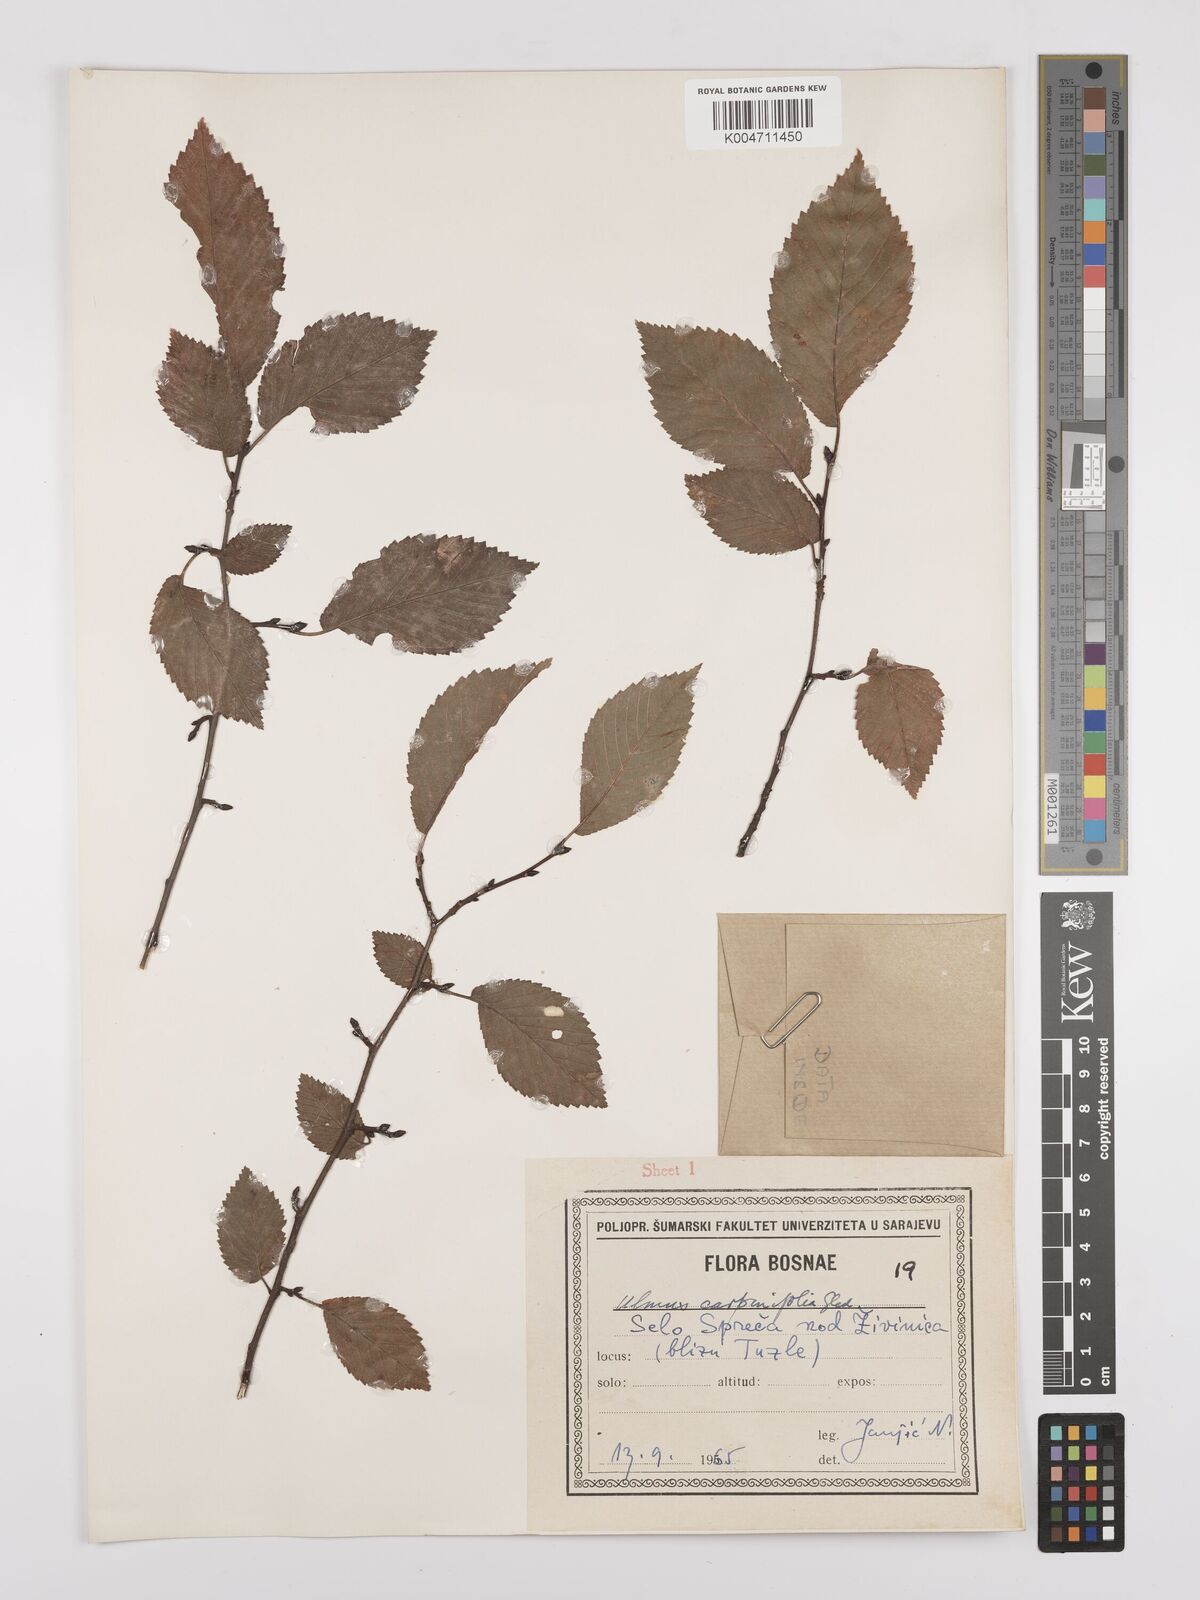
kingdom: Plantae
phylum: Tracheophyta
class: Magnoliopsida
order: Rosales
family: Ulmaceae
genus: Ulmus
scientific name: Ulmus minor
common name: Small-leaved elm
